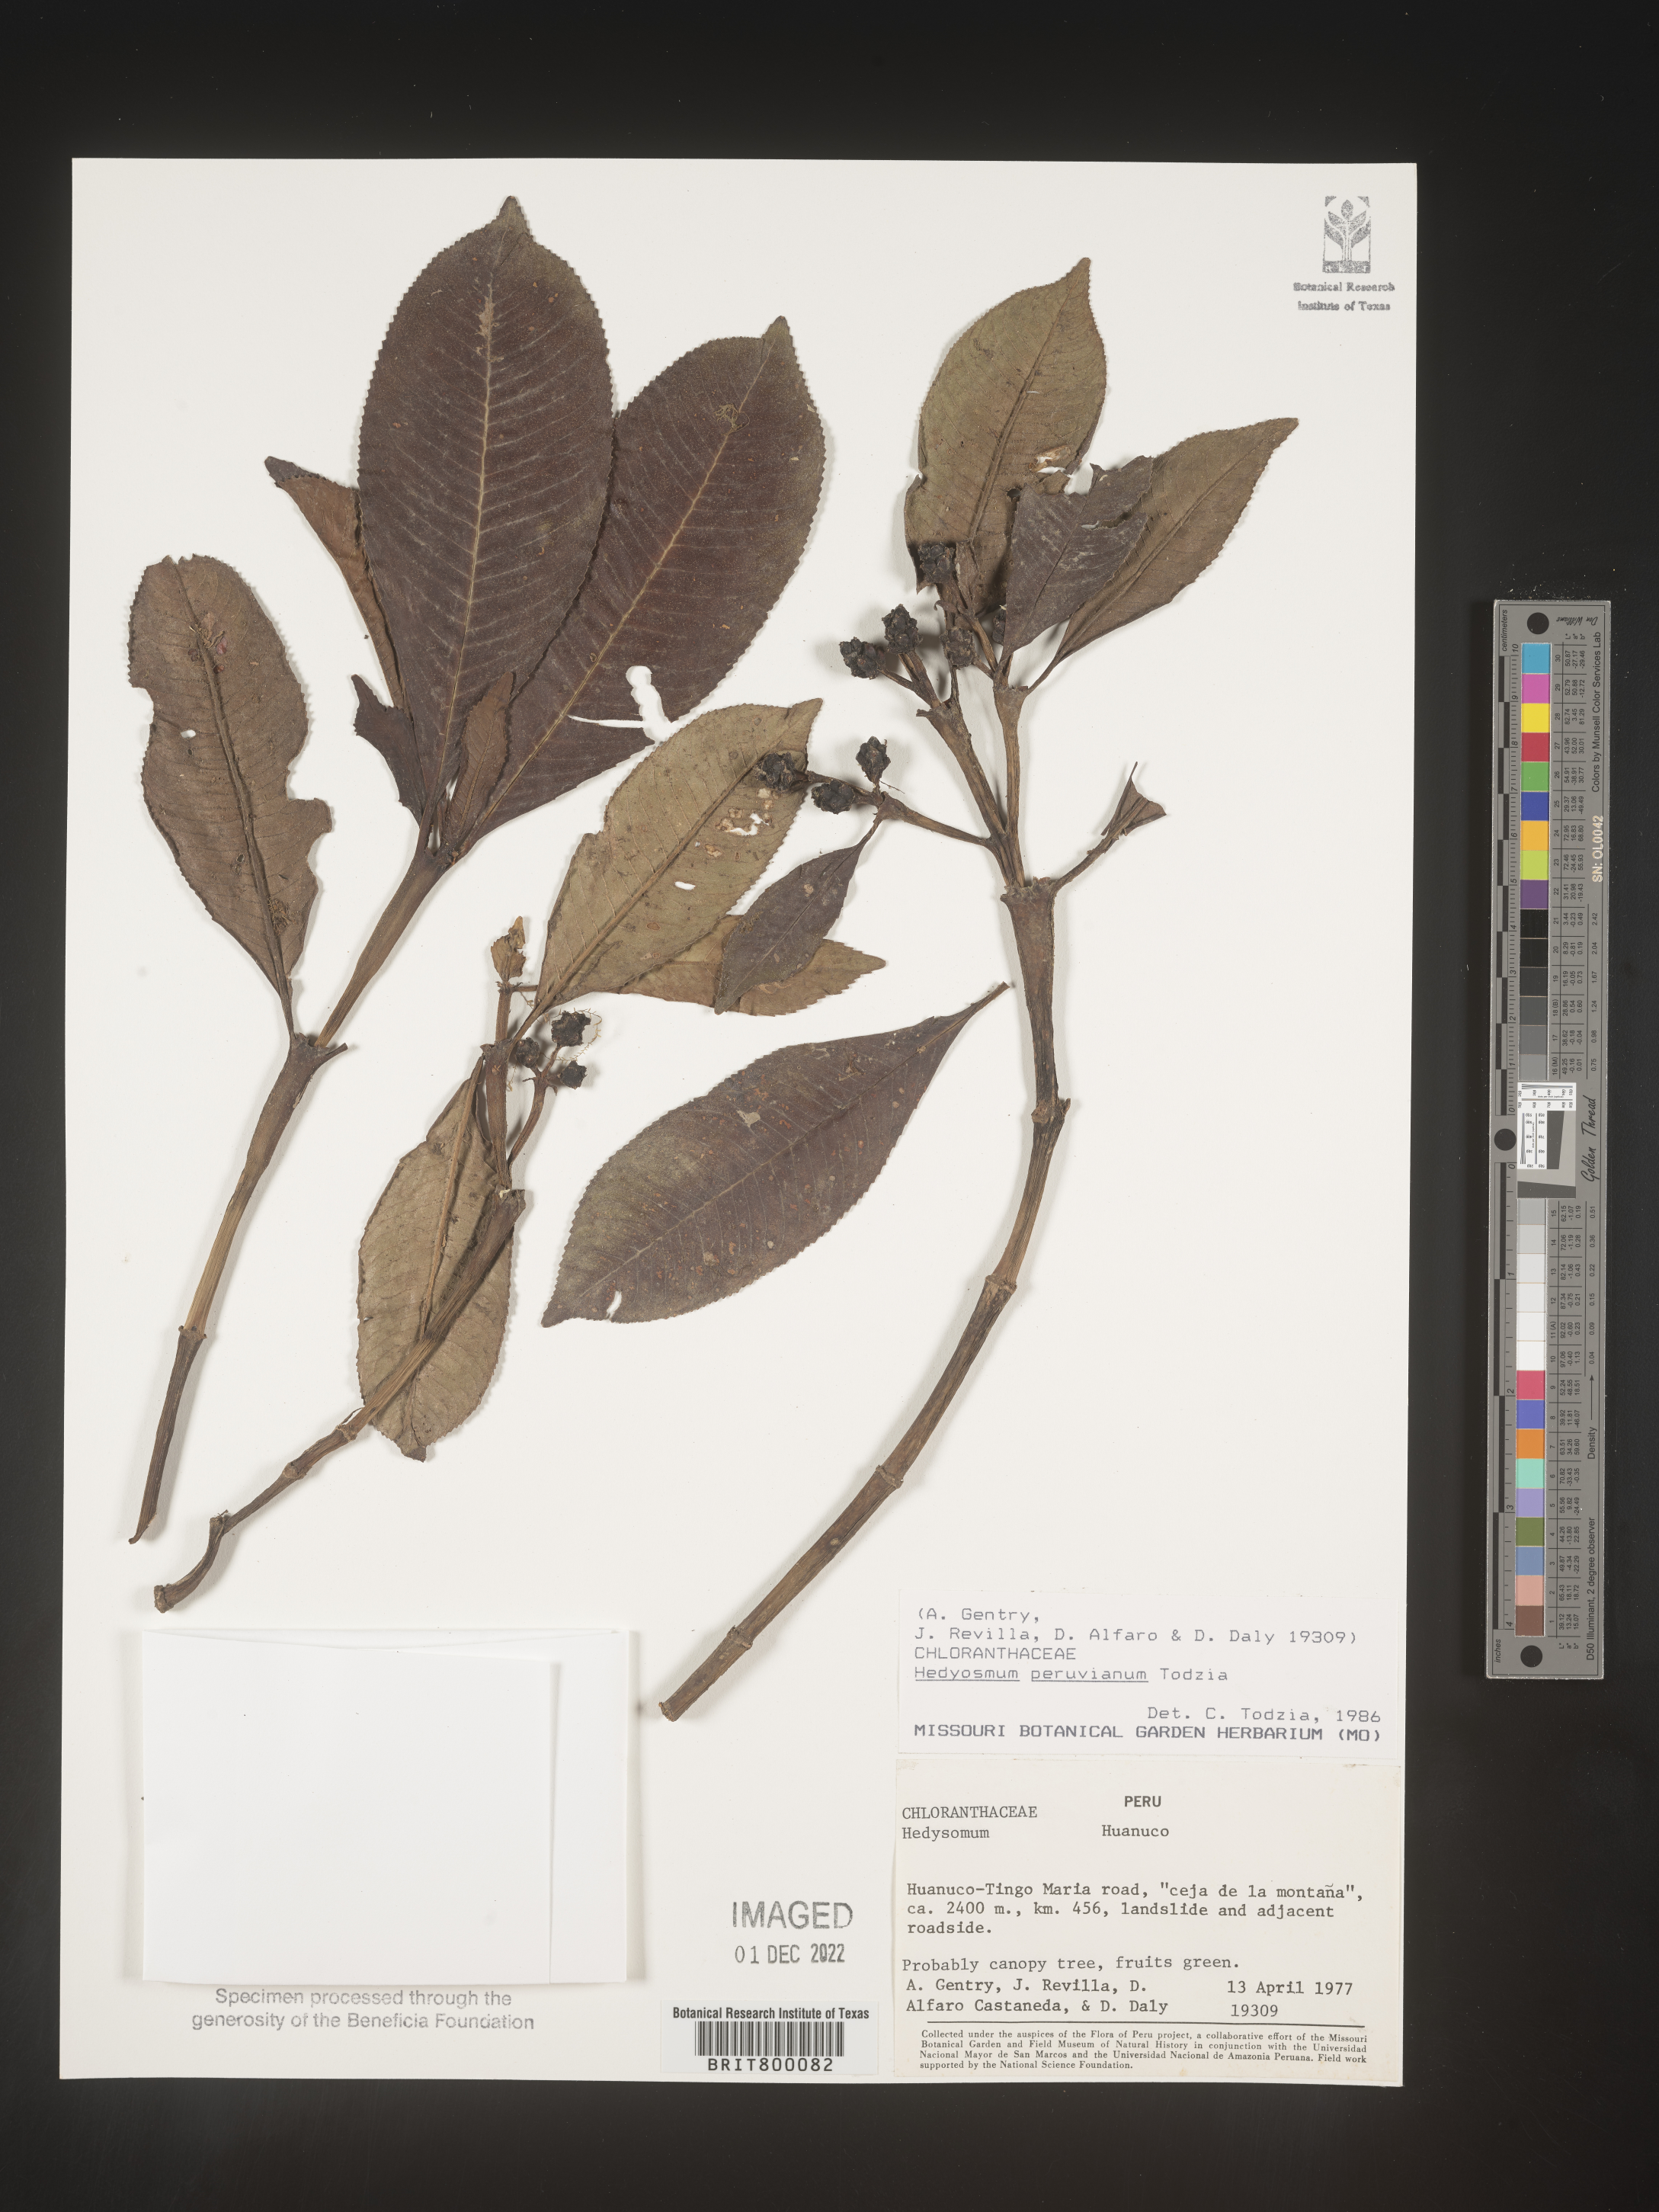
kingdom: Plantae
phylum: Tracheophyta
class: Magnoliopsida
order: Chloranthales
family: Chloranthaceae
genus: Hedyosmum
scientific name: Hedyosmum
